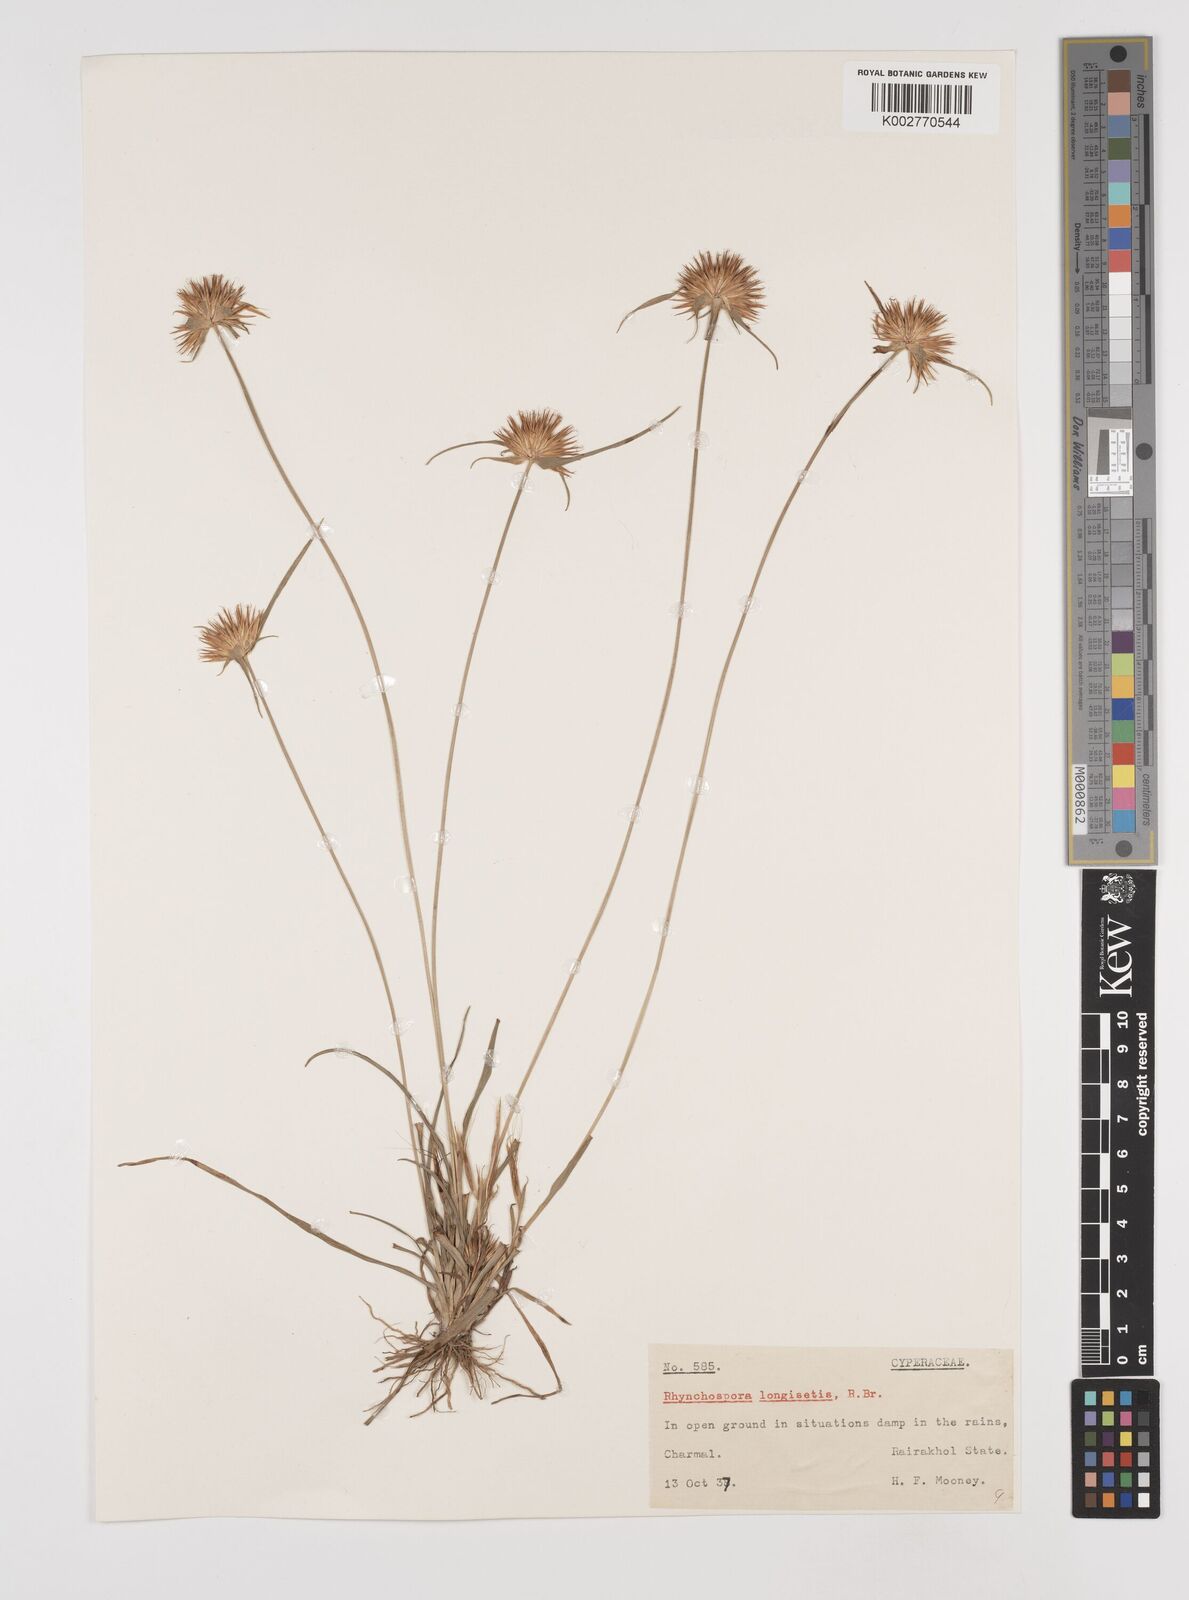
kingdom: Plantae
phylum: Tracheophyta
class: Liliopsida
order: Poales
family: Cyperaceae
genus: Rhynchospora
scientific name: Rhynchospora longisetis
